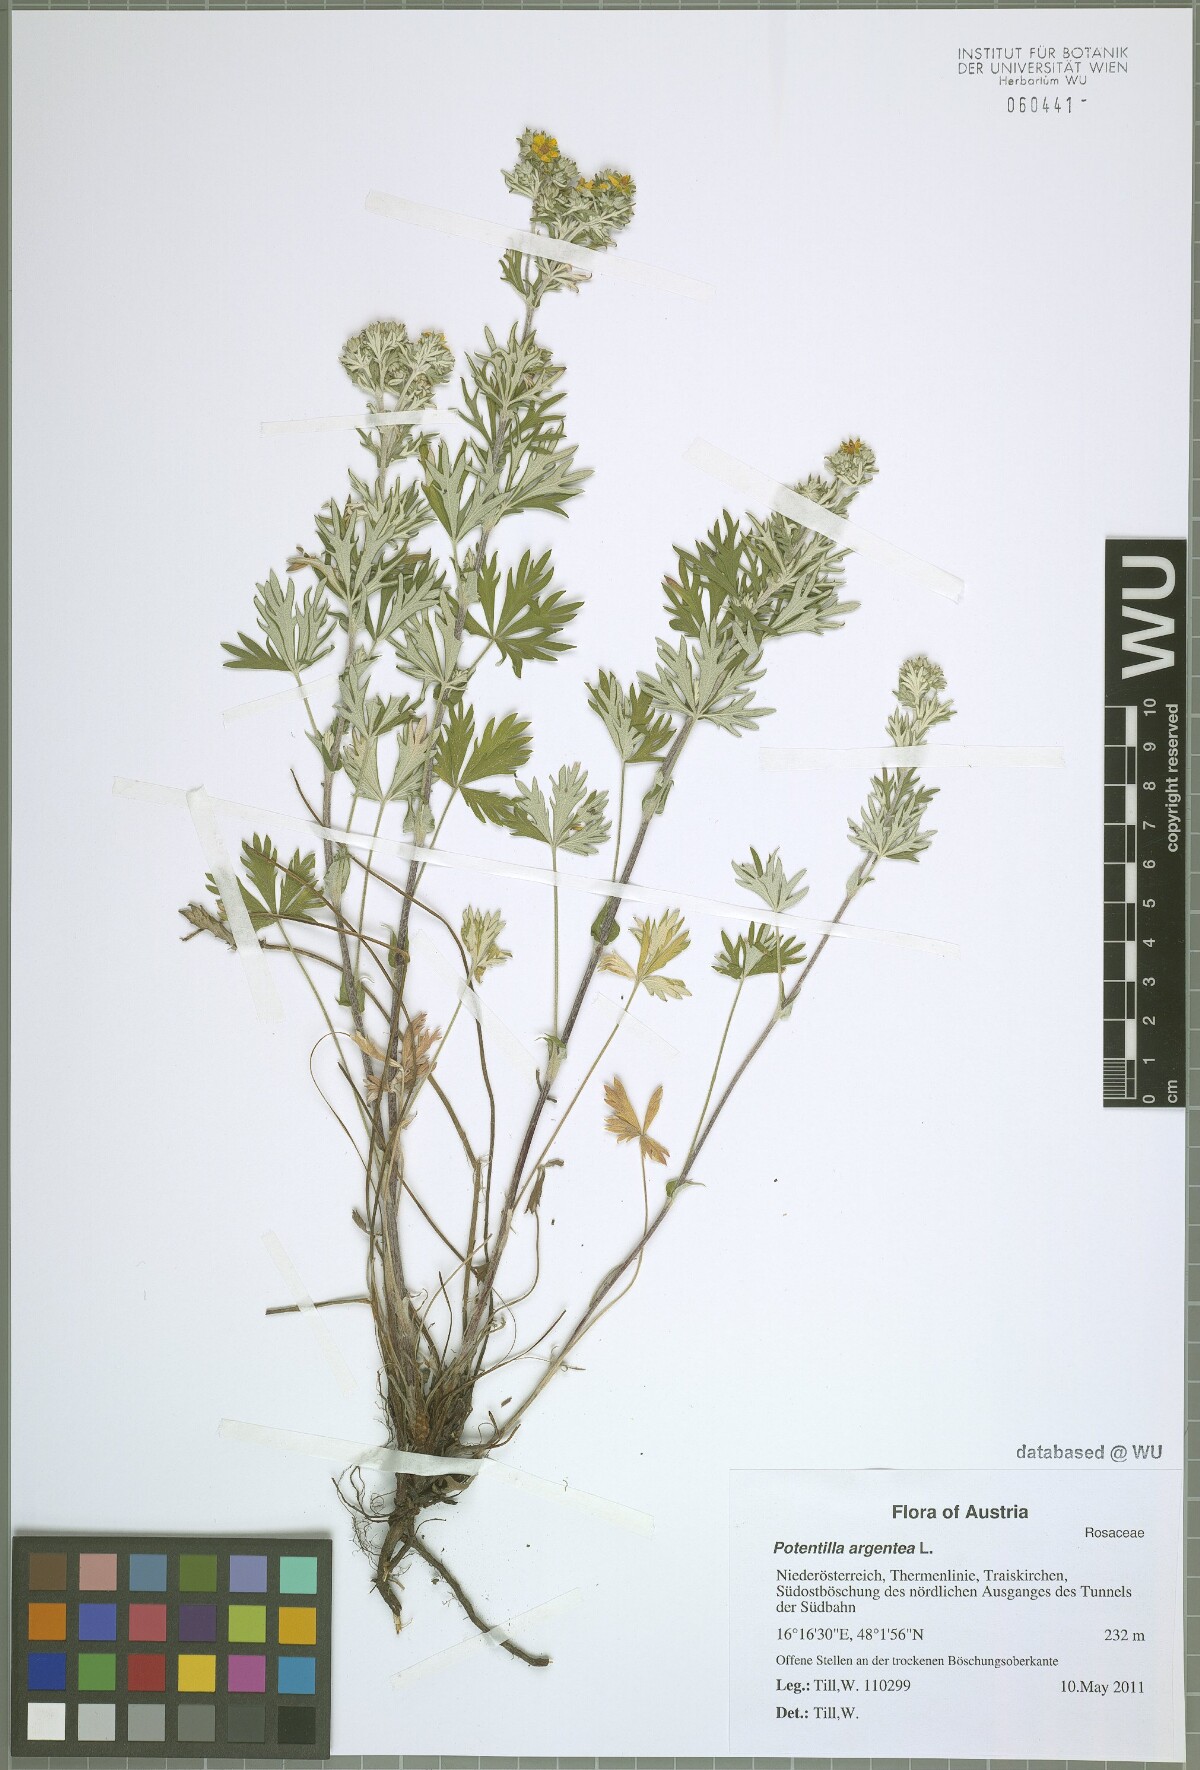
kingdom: Plantae
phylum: Tracheophyta
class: Magnoliopsida
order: Rosales
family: Rosaceae
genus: Potentilla
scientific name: Potentilla argentea
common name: Hoary cinquefoil
